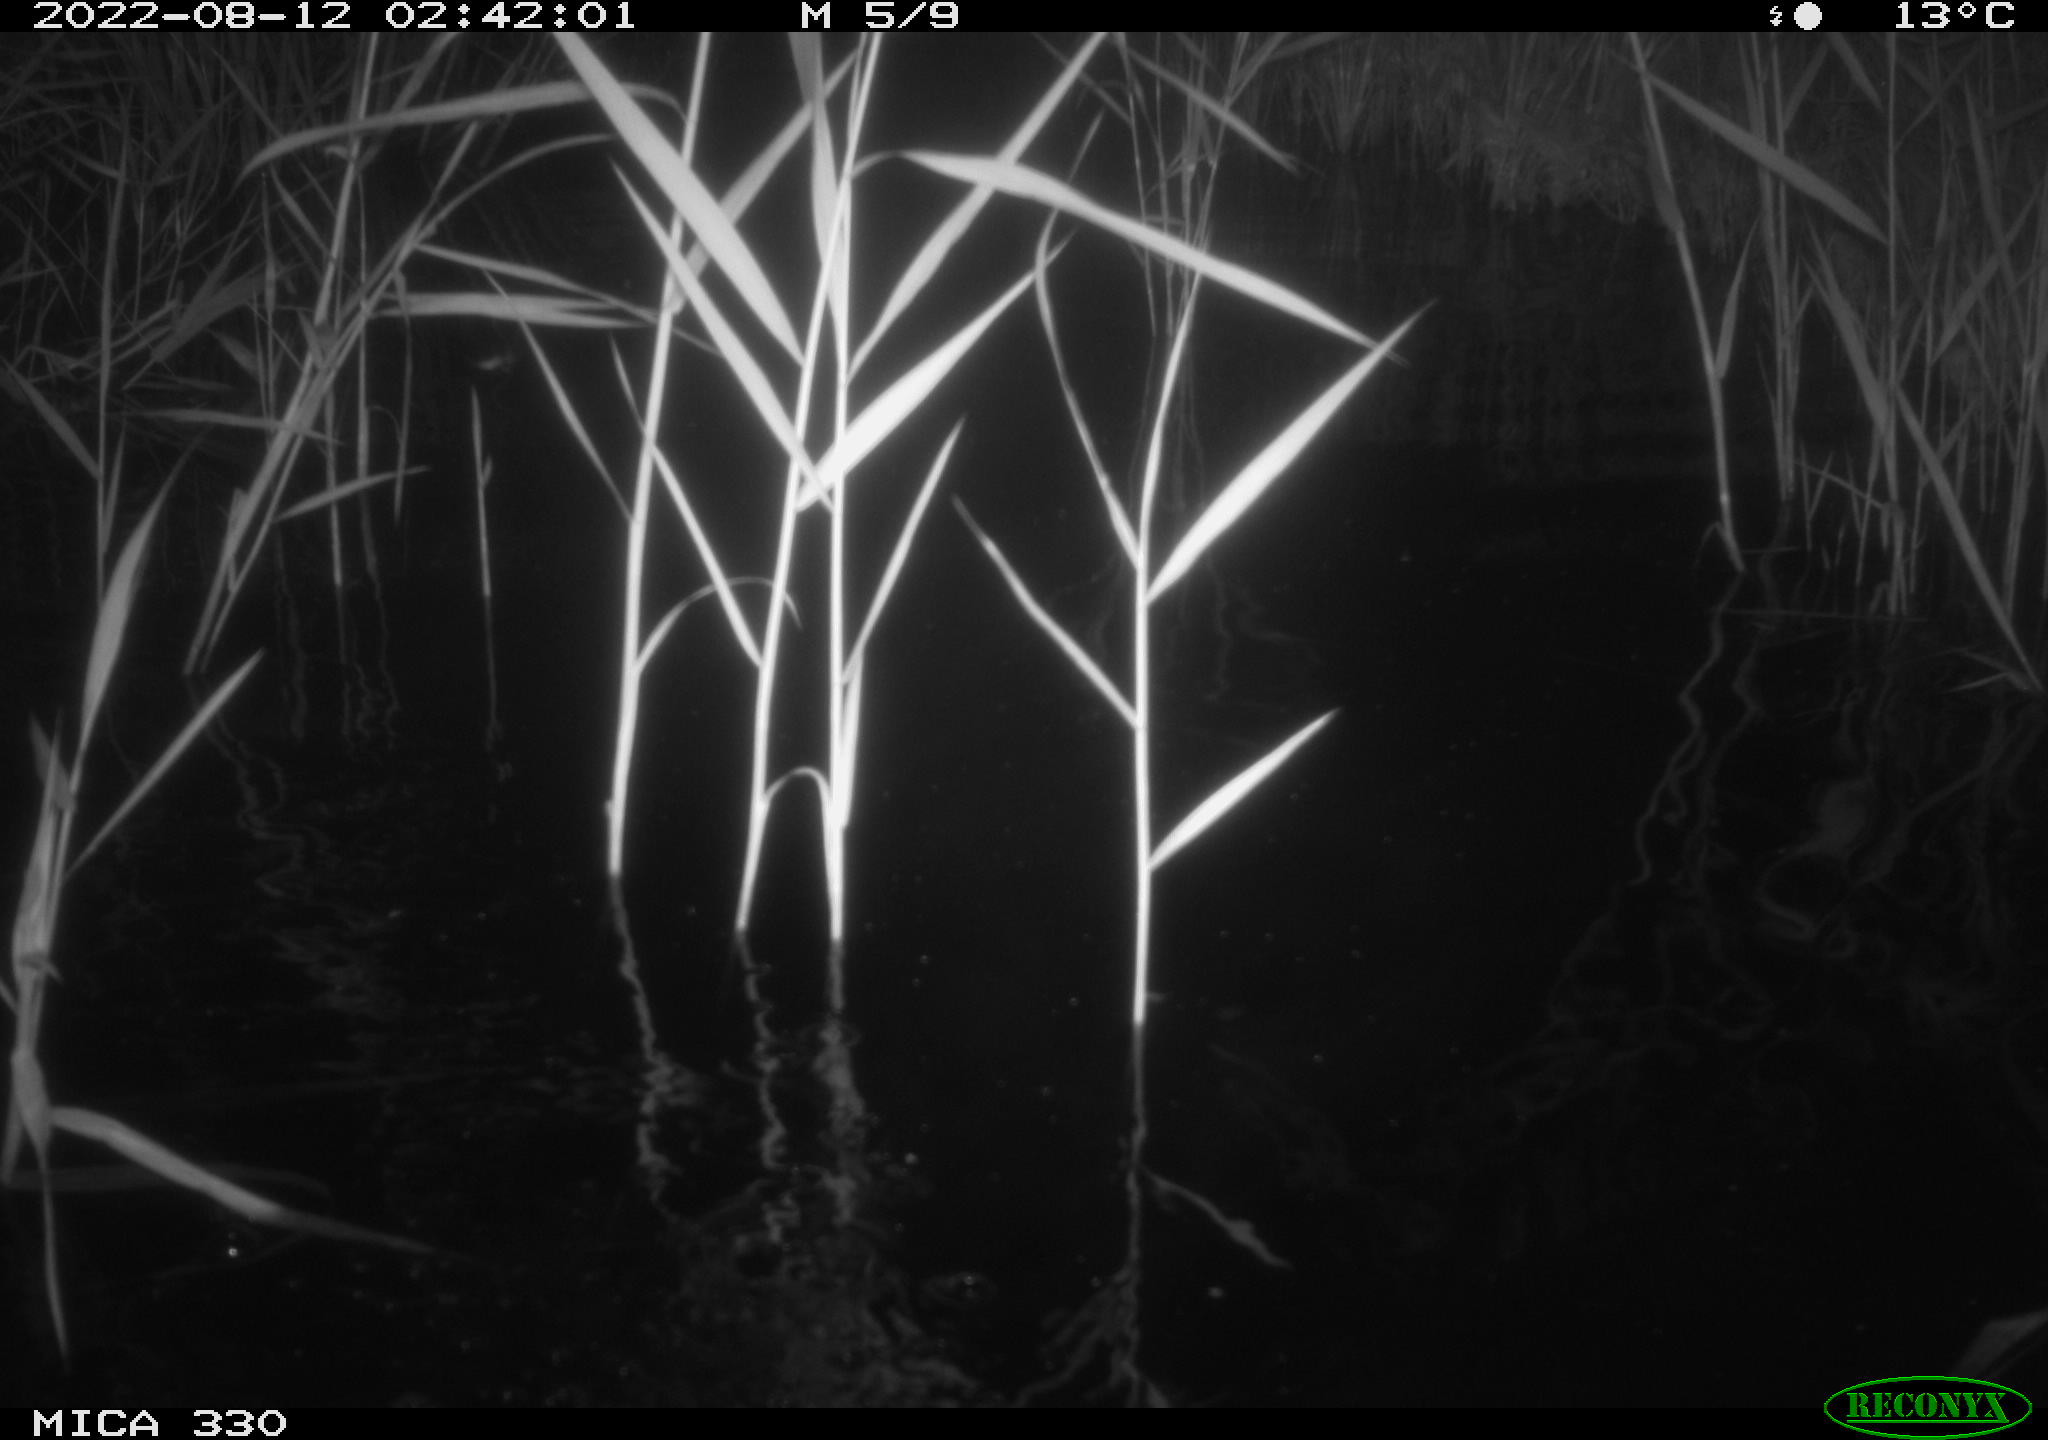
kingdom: Animalia
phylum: Chordata
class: Mammalia
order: Carnivora
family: Mustelidae
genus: Lutra
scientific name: Lutra lutra
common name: European otter
